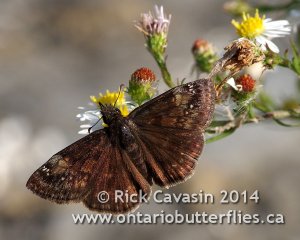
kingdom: Animalia
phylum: Arthropoda
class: Insecta
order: Lepidoptera
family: Hesperiidae
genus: Gesta
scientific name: Gesta
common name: Wild Indigo Duskywing
